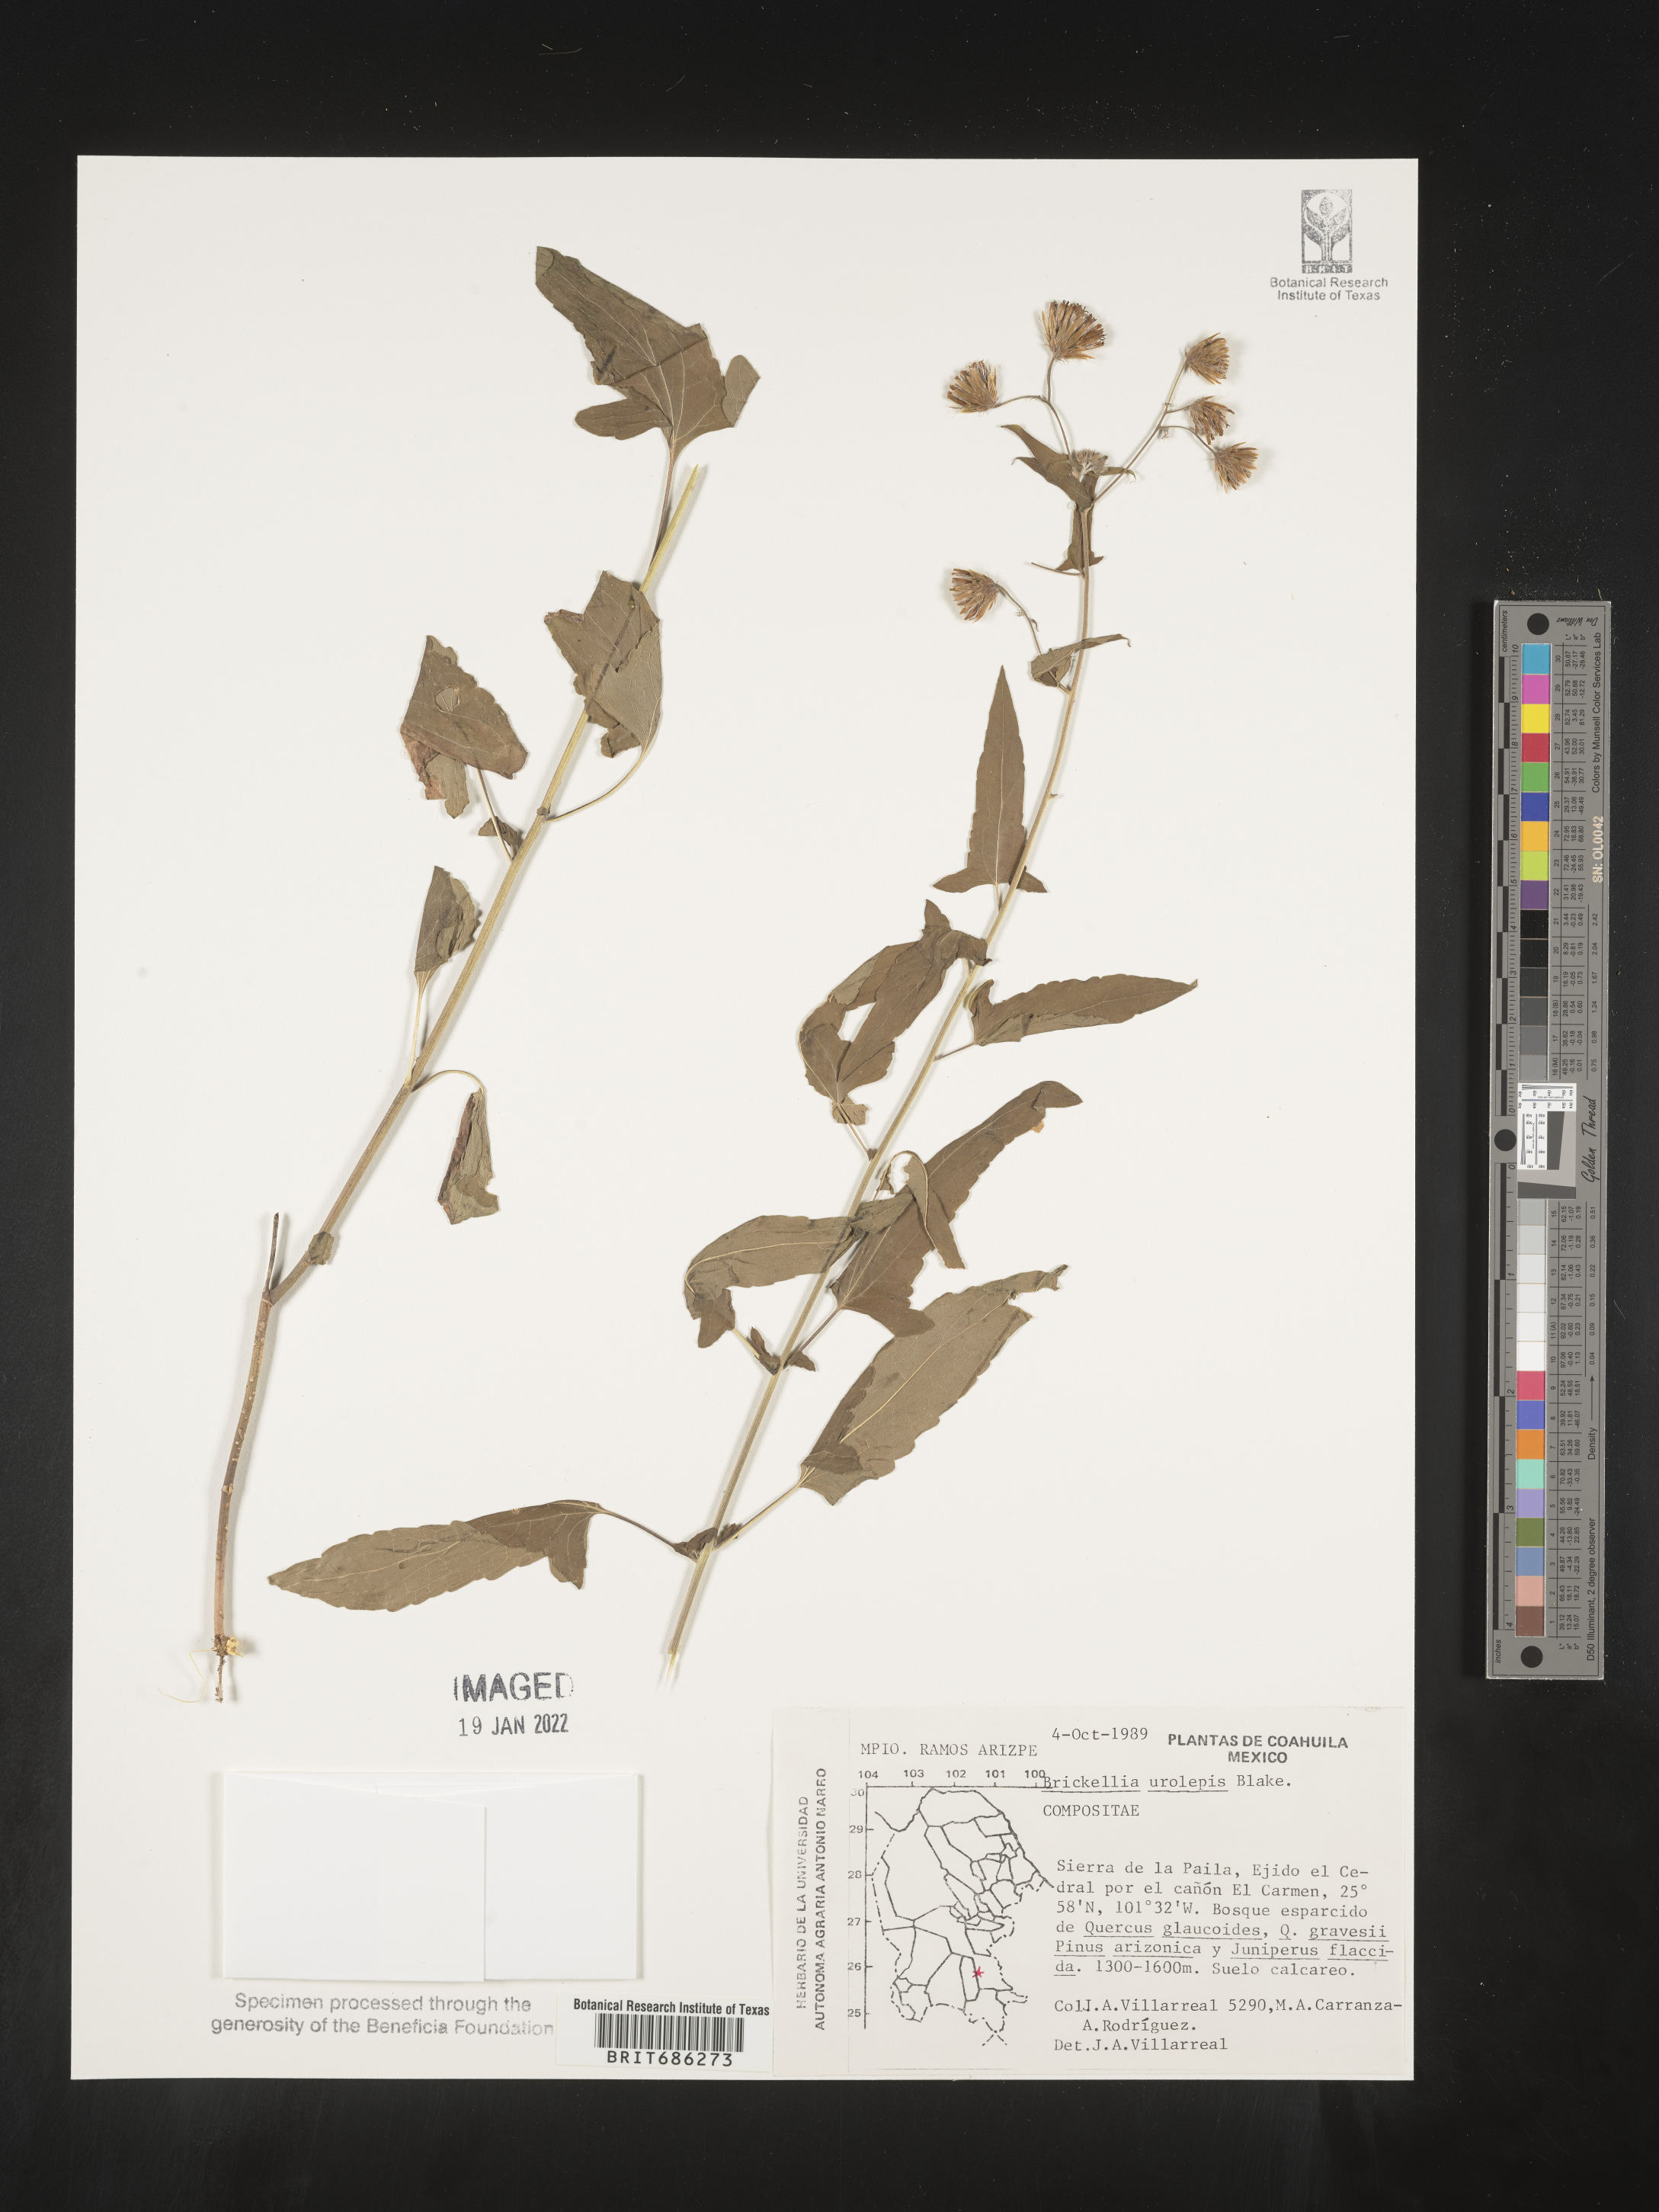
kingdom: Plantae
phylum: Tracheophyta
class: Magnoliopsida
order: Asterales
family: Asteraceae
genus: Brickellia
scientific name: Brickellia urolepis
